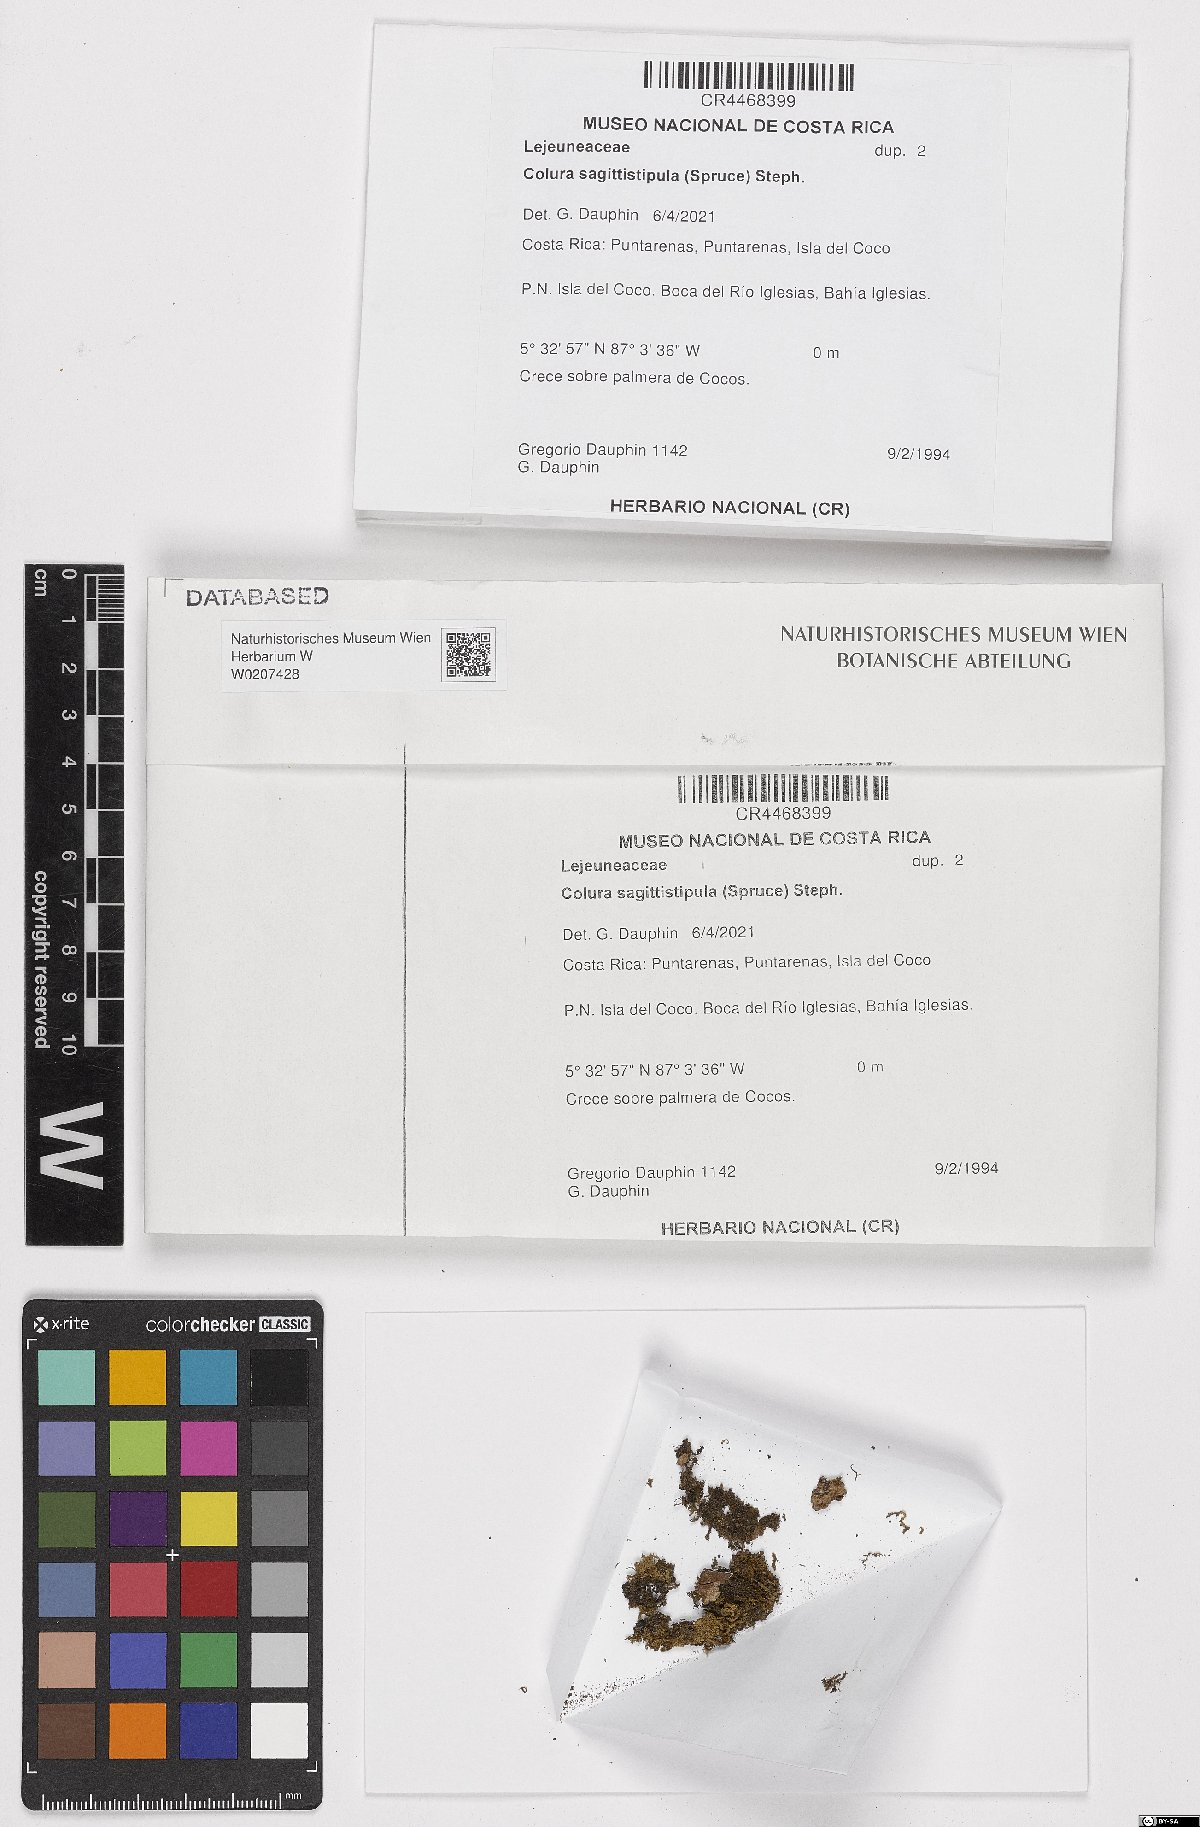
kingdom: Plantae
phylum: Marchantiophyta
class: Jungermanniopsida
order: Porellales
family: Lejeuneaceae
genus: Macrocolura
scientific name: Macrocolura sagittistipula
